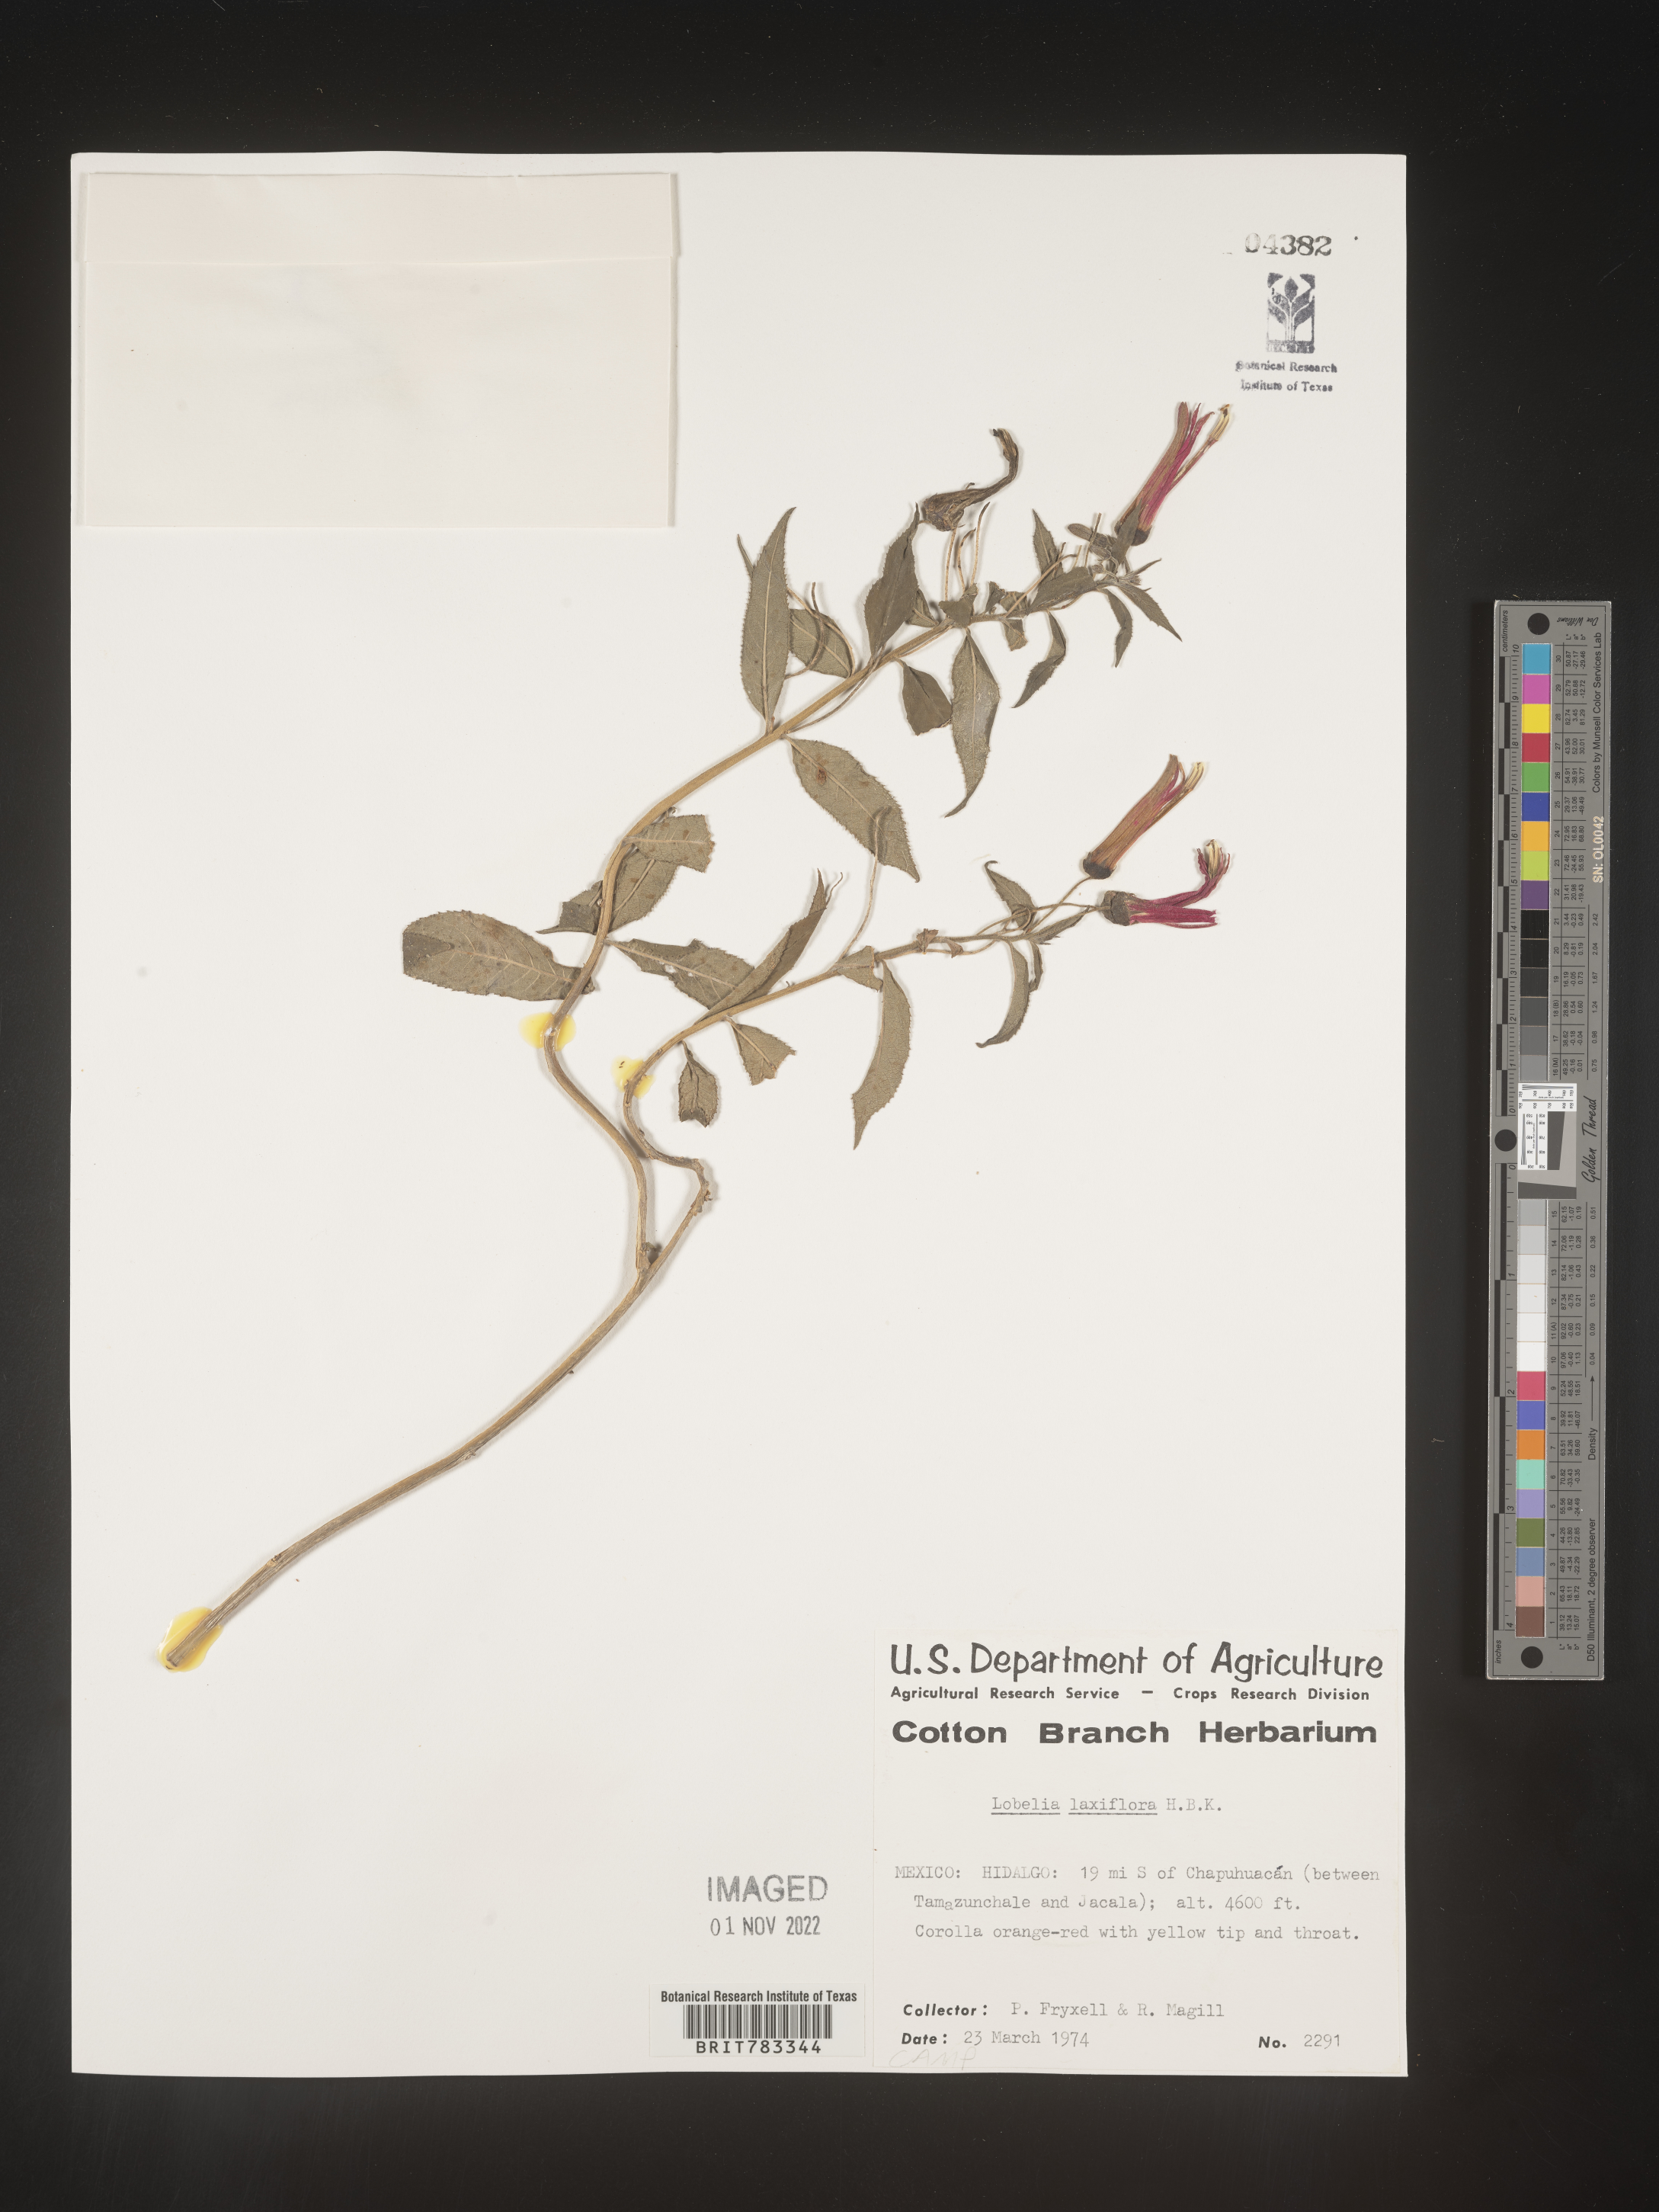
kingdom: Plantae
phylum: Tracheophyta
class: Magnoliopsida
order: Asterales
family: Campanulaceae
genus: Lobelia
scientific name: Lobelia
